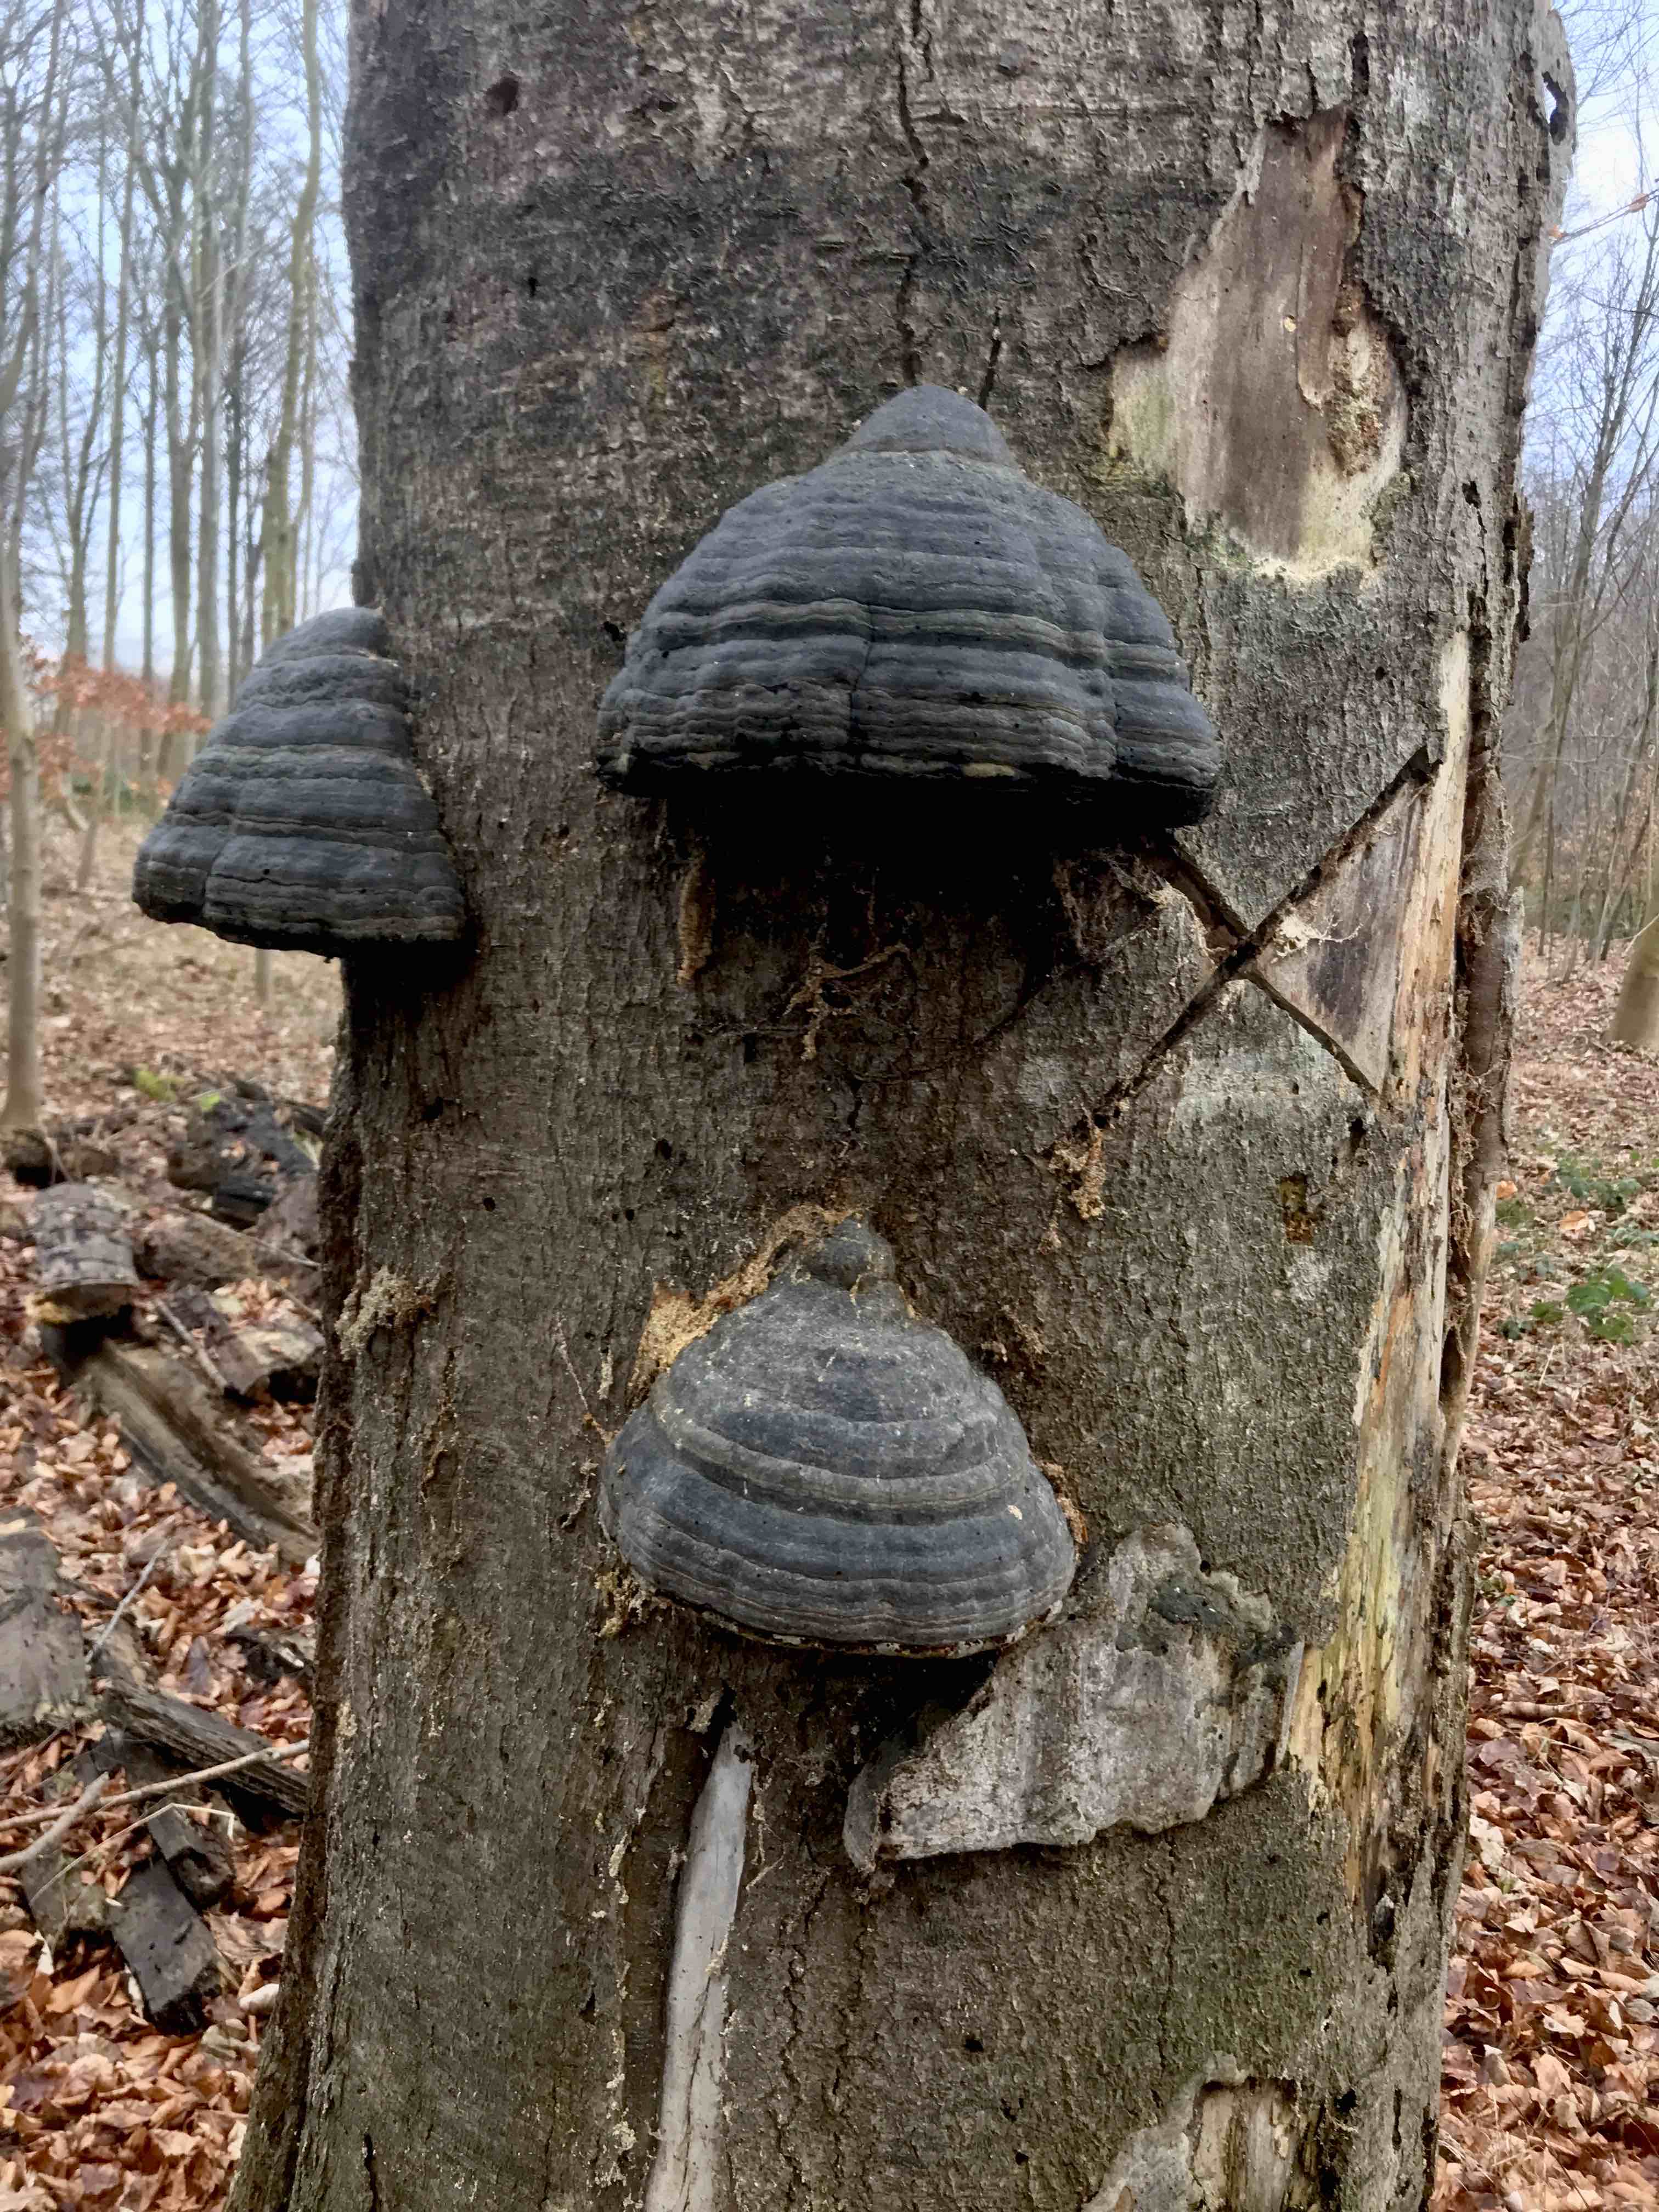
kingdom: Fungi
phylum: Basidiomycota
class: Agaricomycetes
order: Polyporales
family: Polyporaceae
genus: Fomes
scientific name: Fomes fomentarius
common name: tøndersvamp
